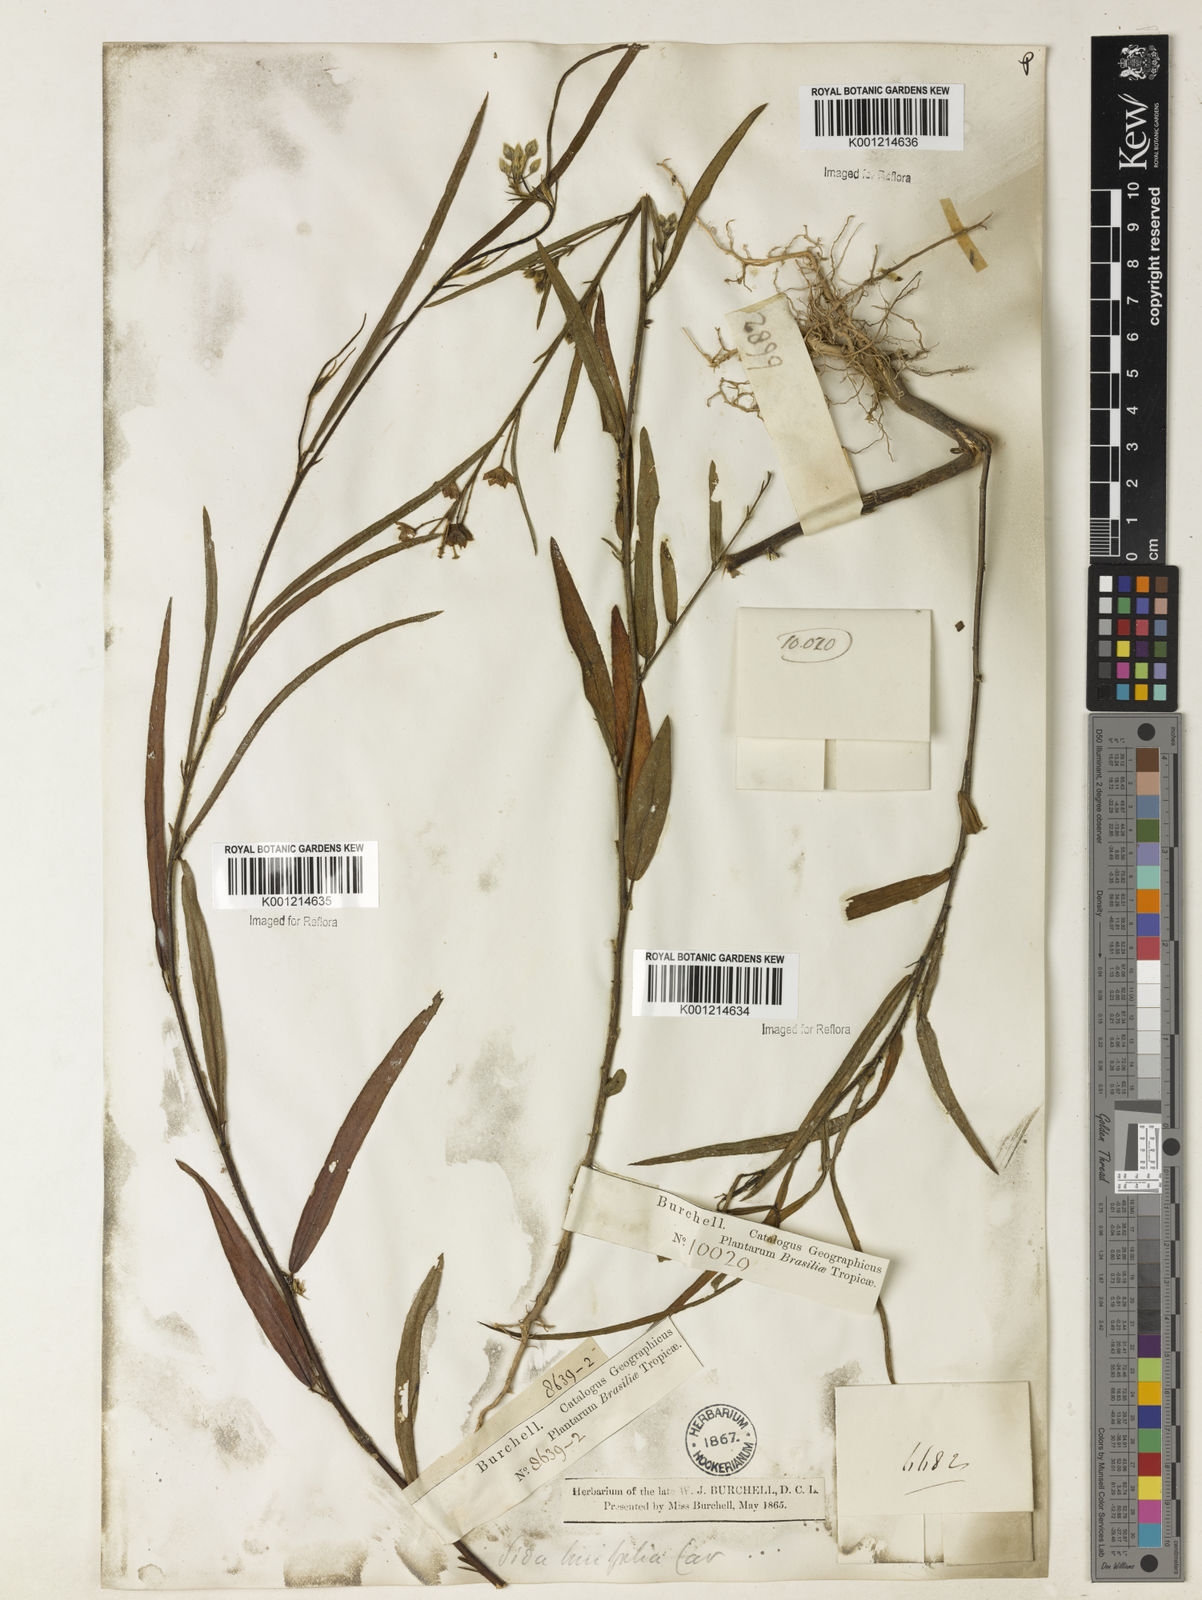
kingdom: Plantae
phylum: Tracheophyta
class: Magnoliopsida
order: Malvales
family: Malvaceae
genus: Sida
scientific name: Sida linifolia
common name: Flaxleaf fanpetals
